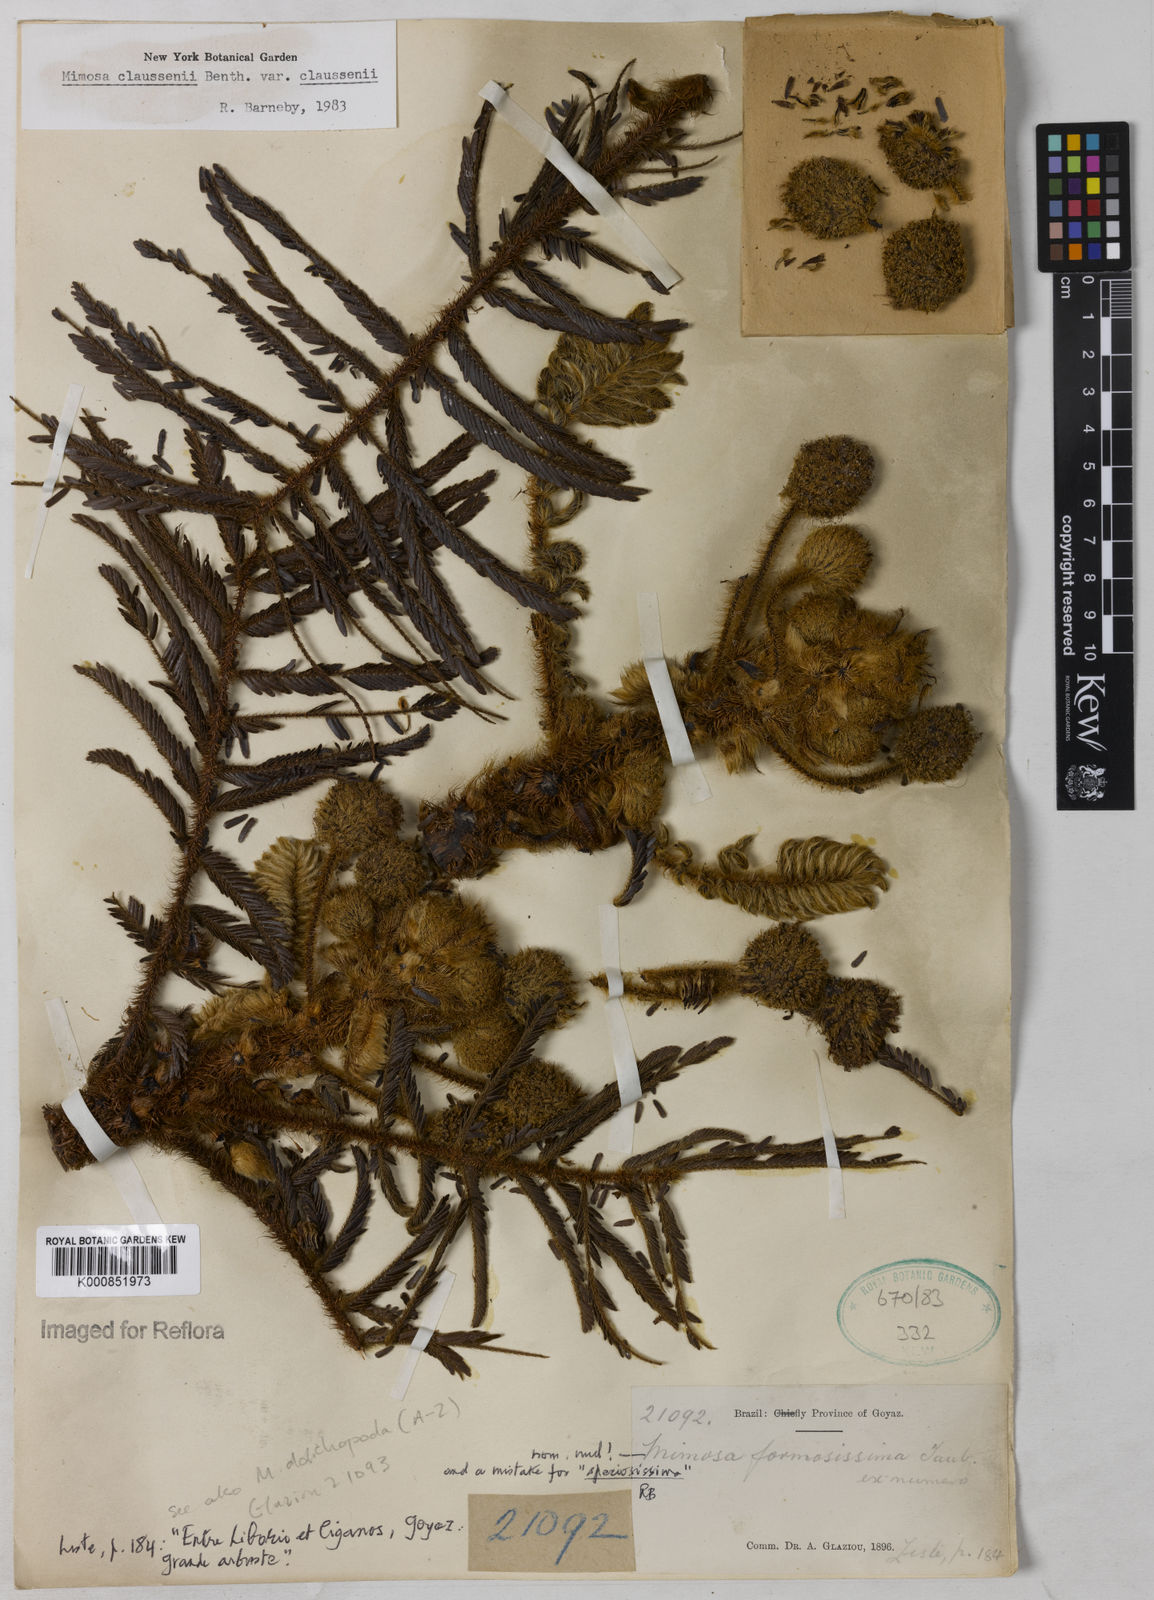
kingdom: Plantae
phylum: Tracheophyta
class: Magnoliopsida
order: Fabales
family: Fabaceae
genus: Mimosa
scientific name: Mimosa claussenii
